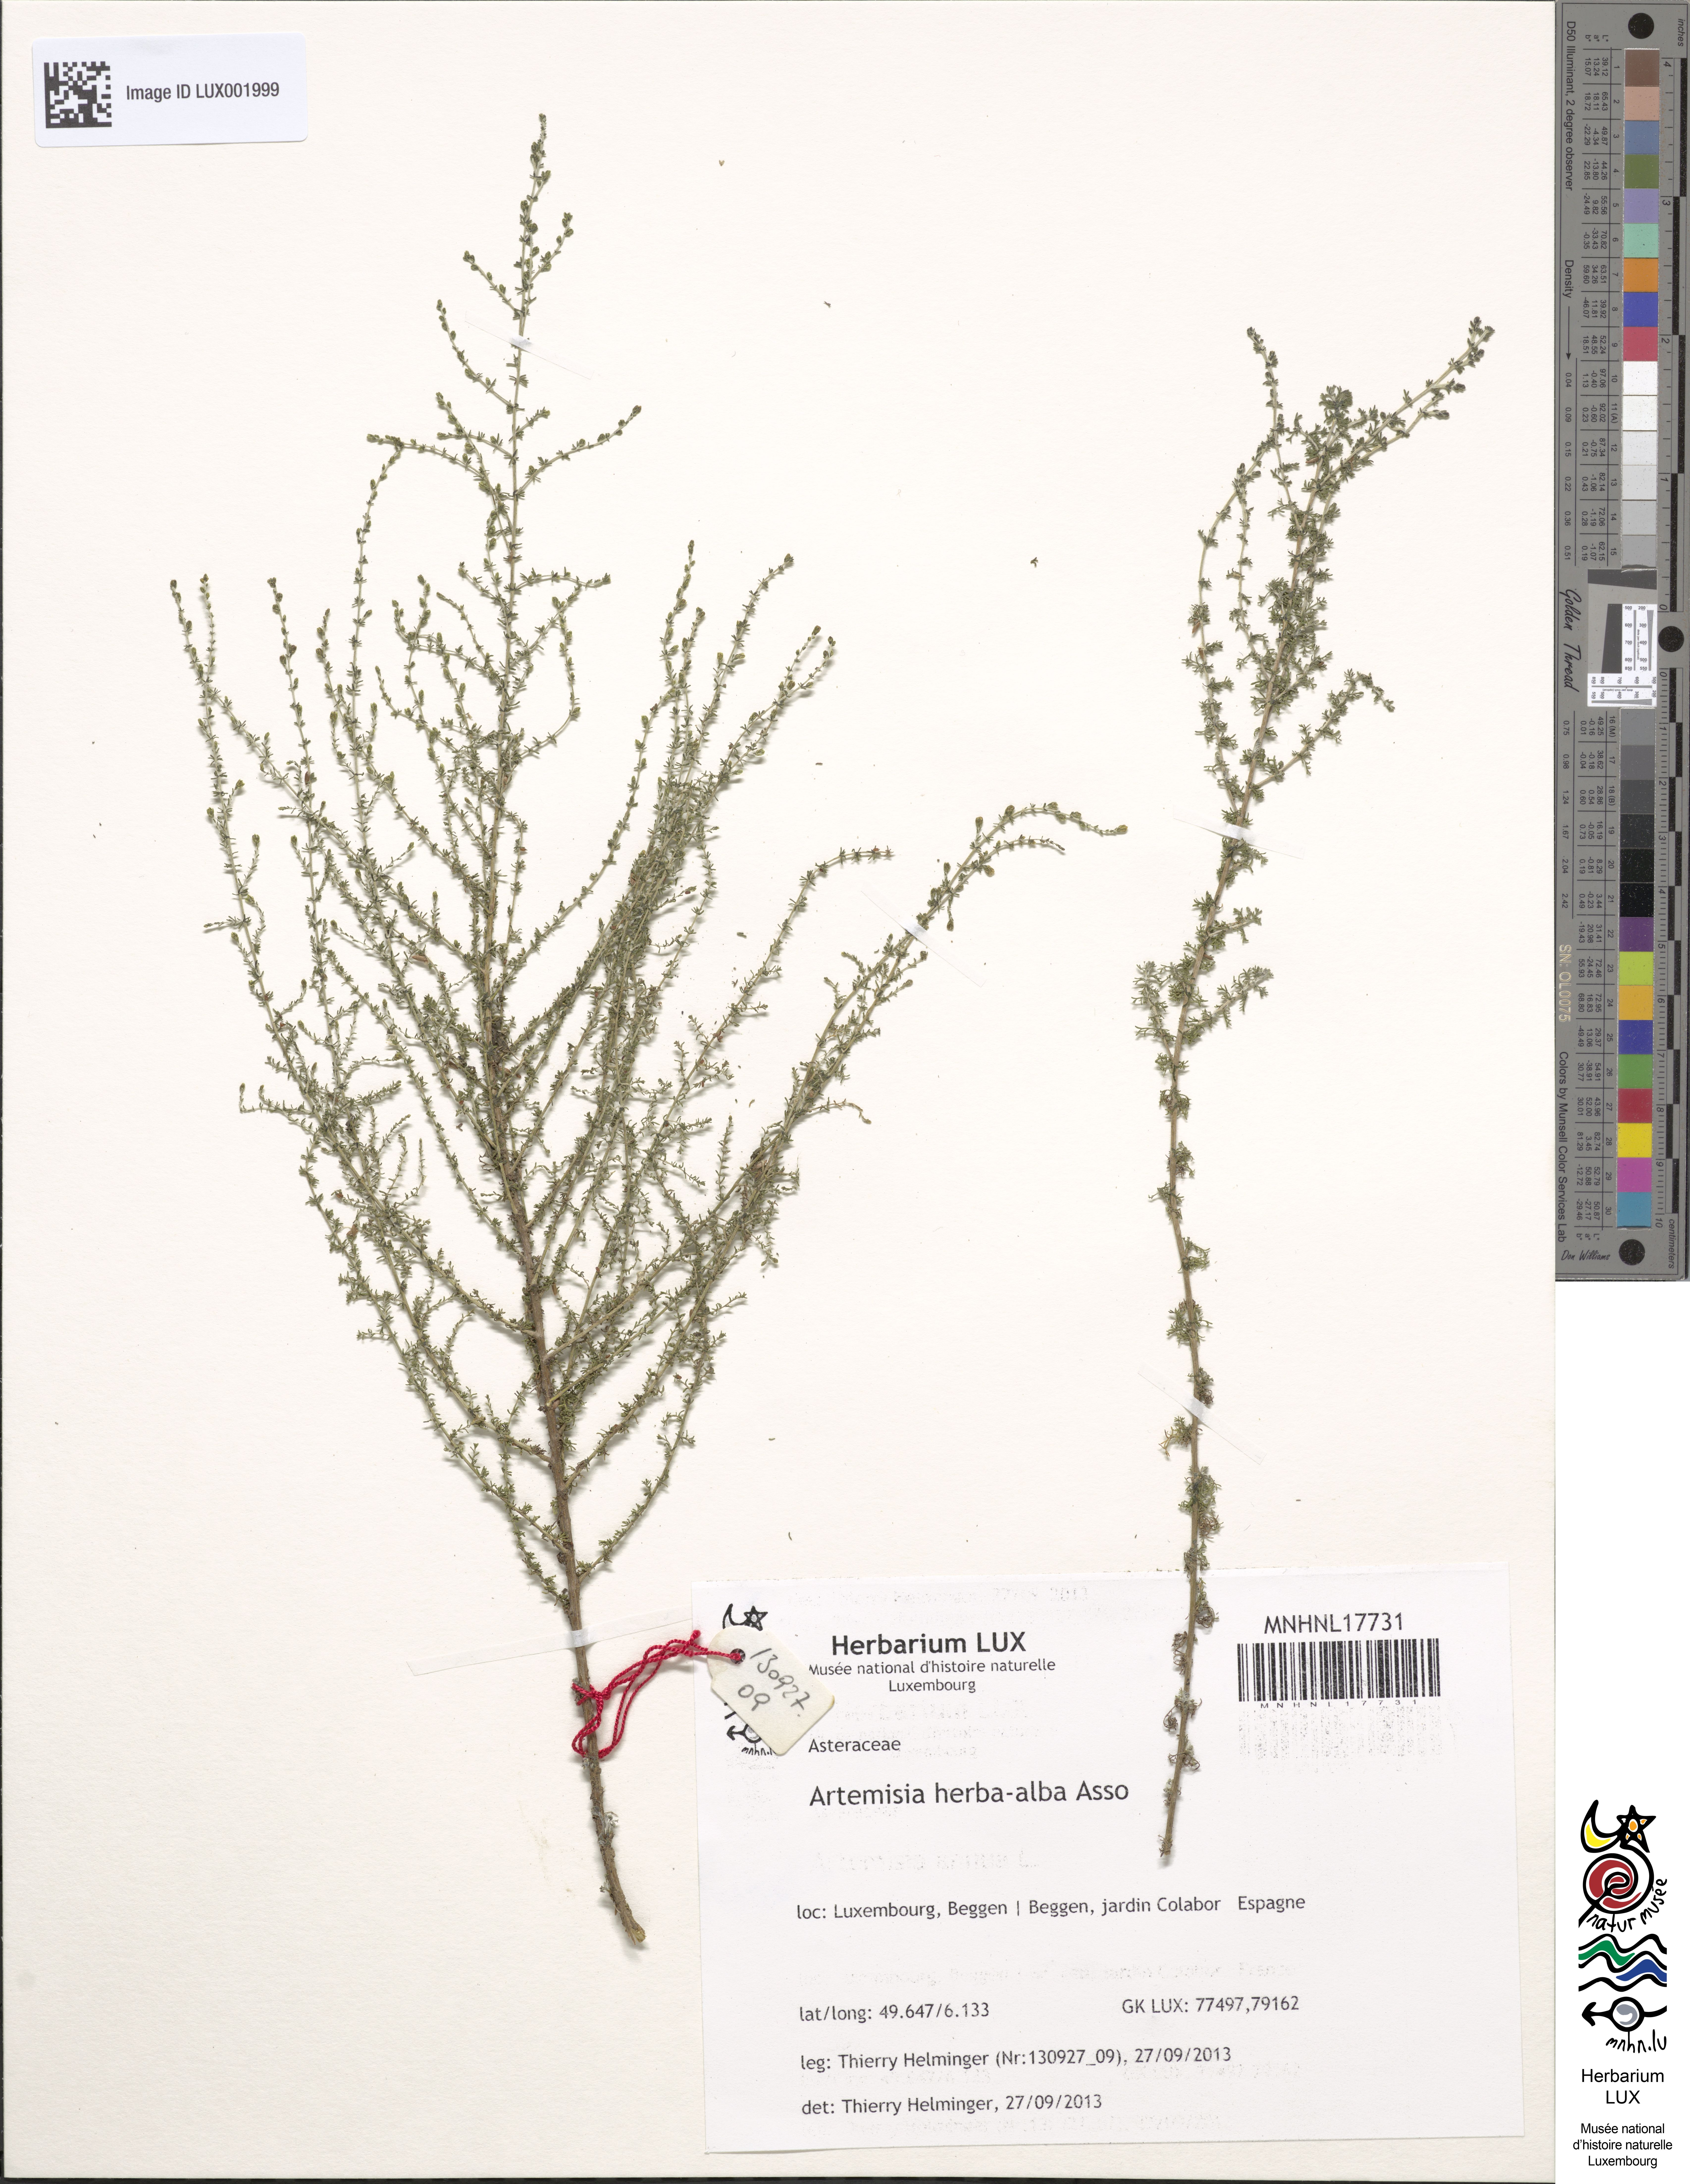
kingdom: Plantae
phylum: Tracheophyta
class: Magnoliopsida
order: Asterales
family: Asteraceae
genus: Artemisia
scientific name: Artemisia herba-alba
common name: White wormwood
